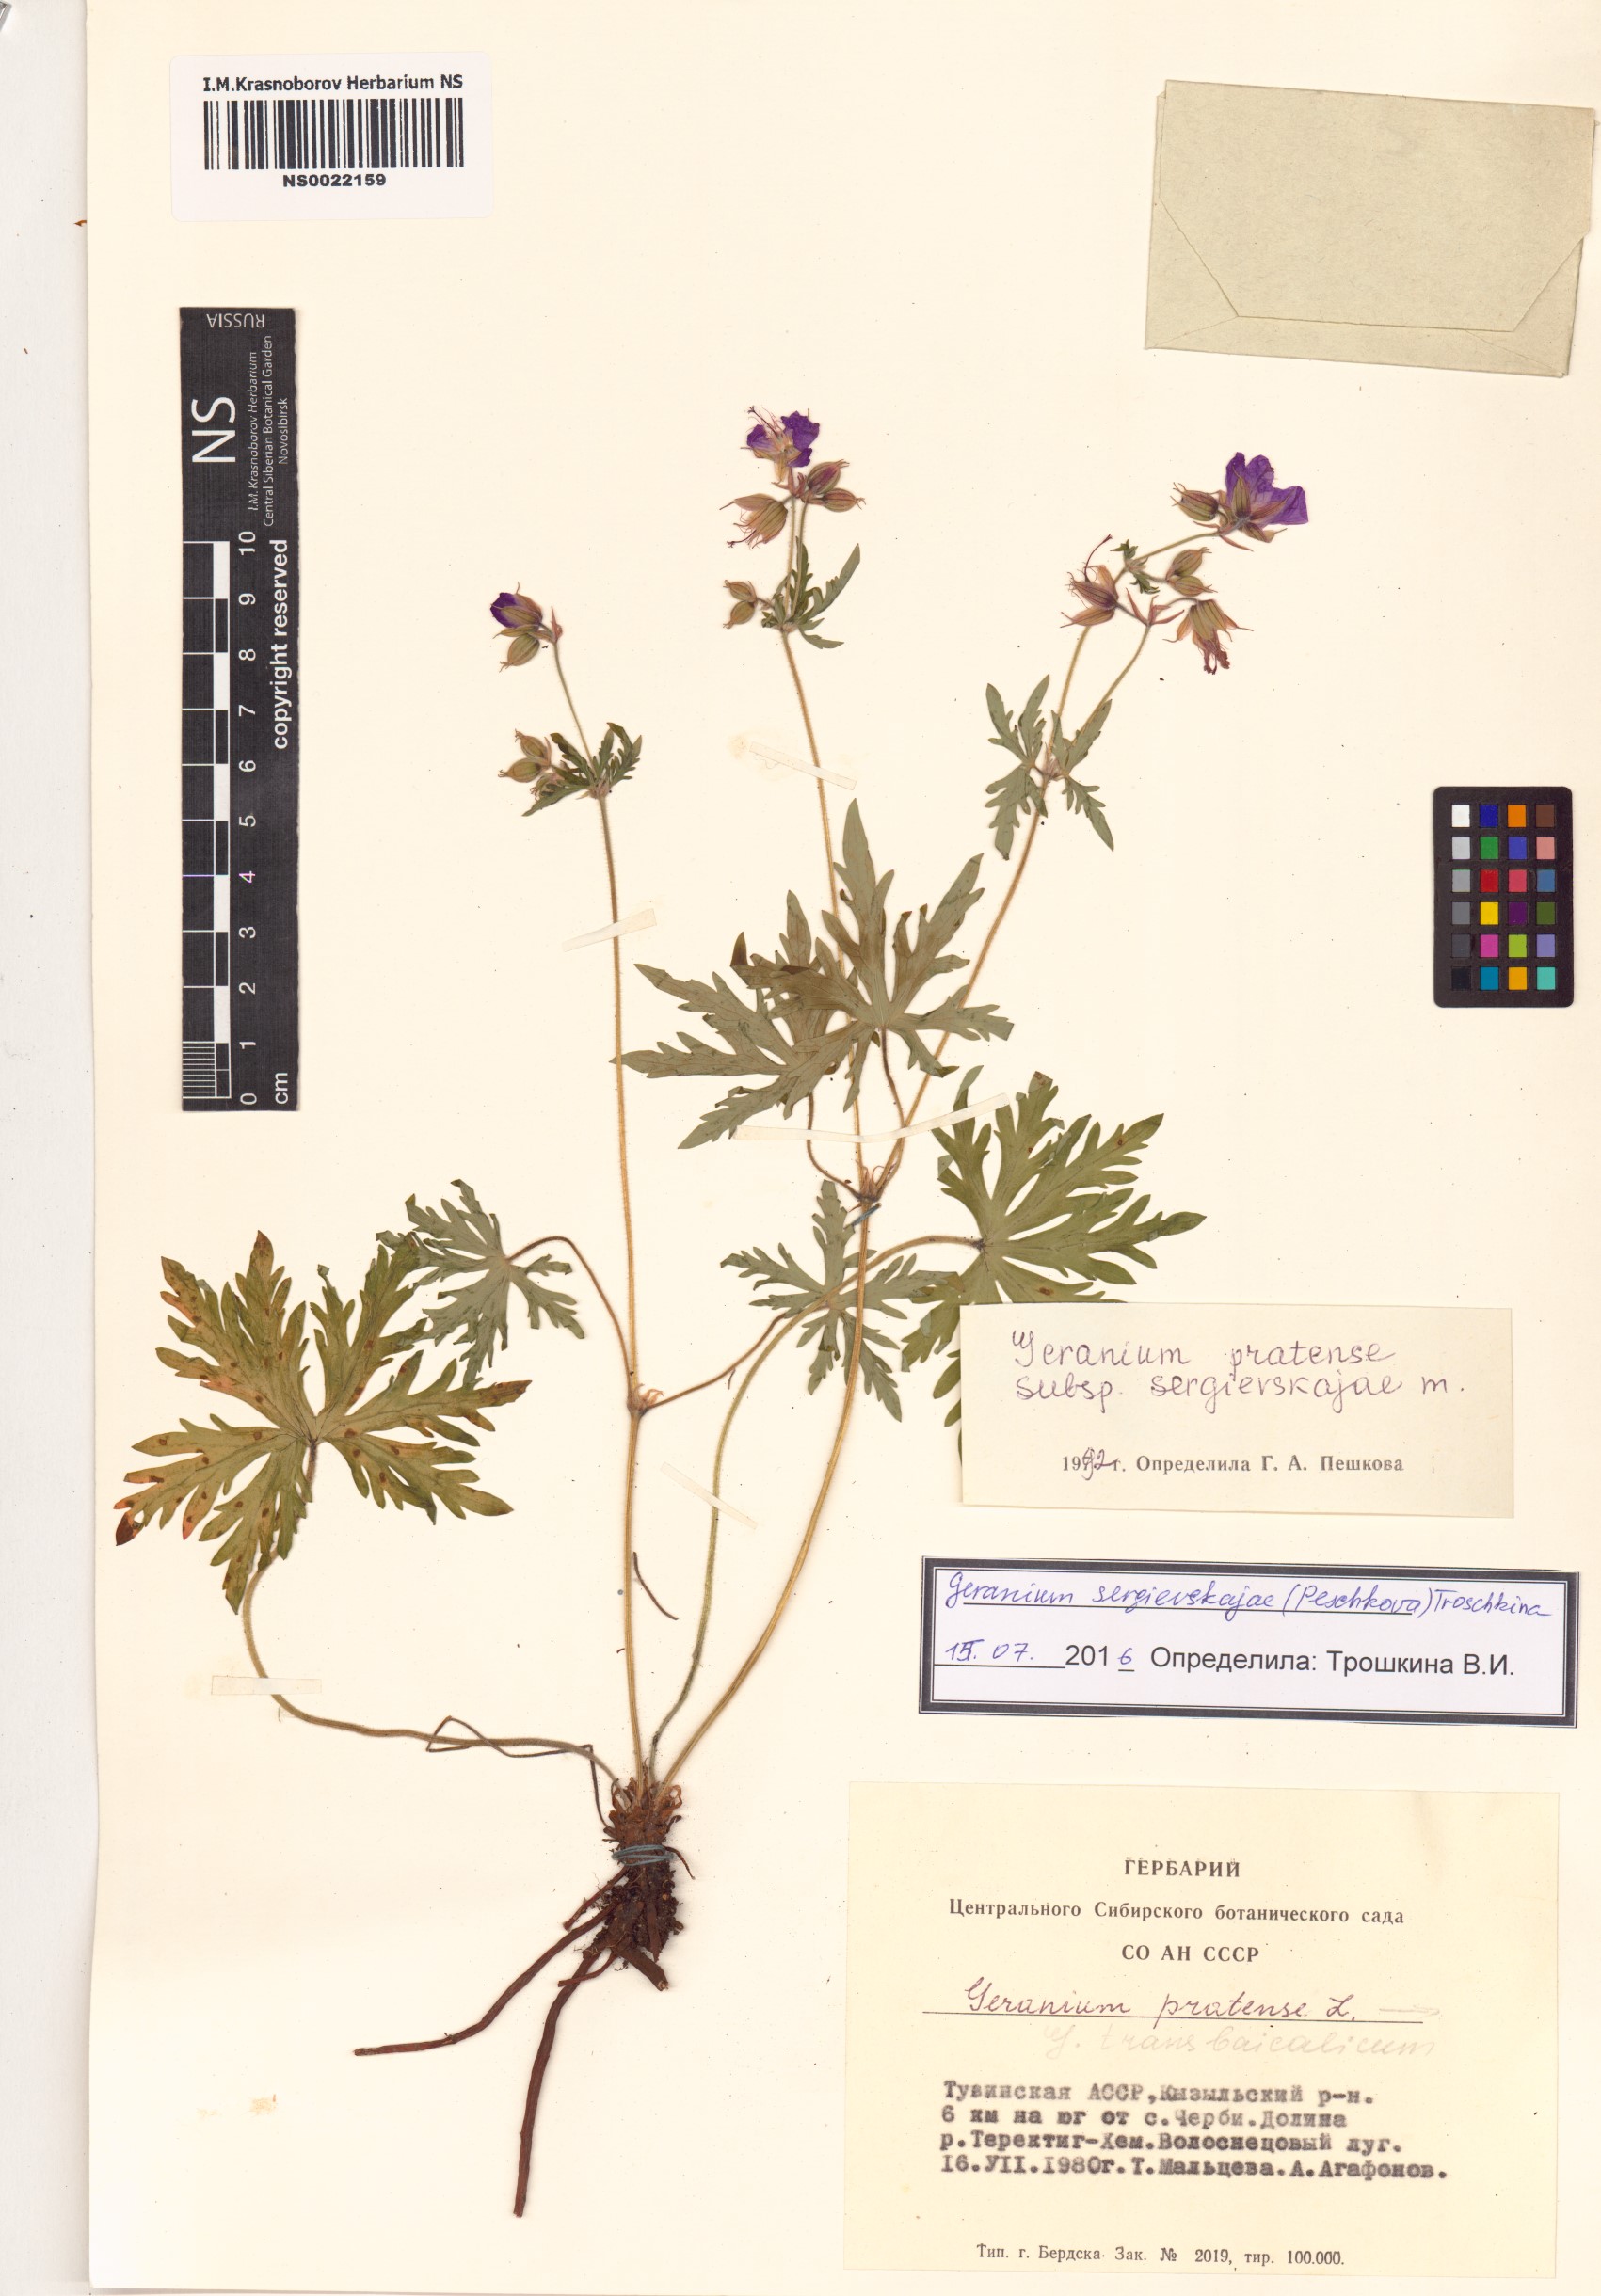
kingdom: Plantae
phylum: Tracheophyta
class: Magnoliopsida
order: Geraniales
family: Geraniaceae
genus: Geranium
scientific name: Geranium pratense
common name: Meadow crane's-bill
